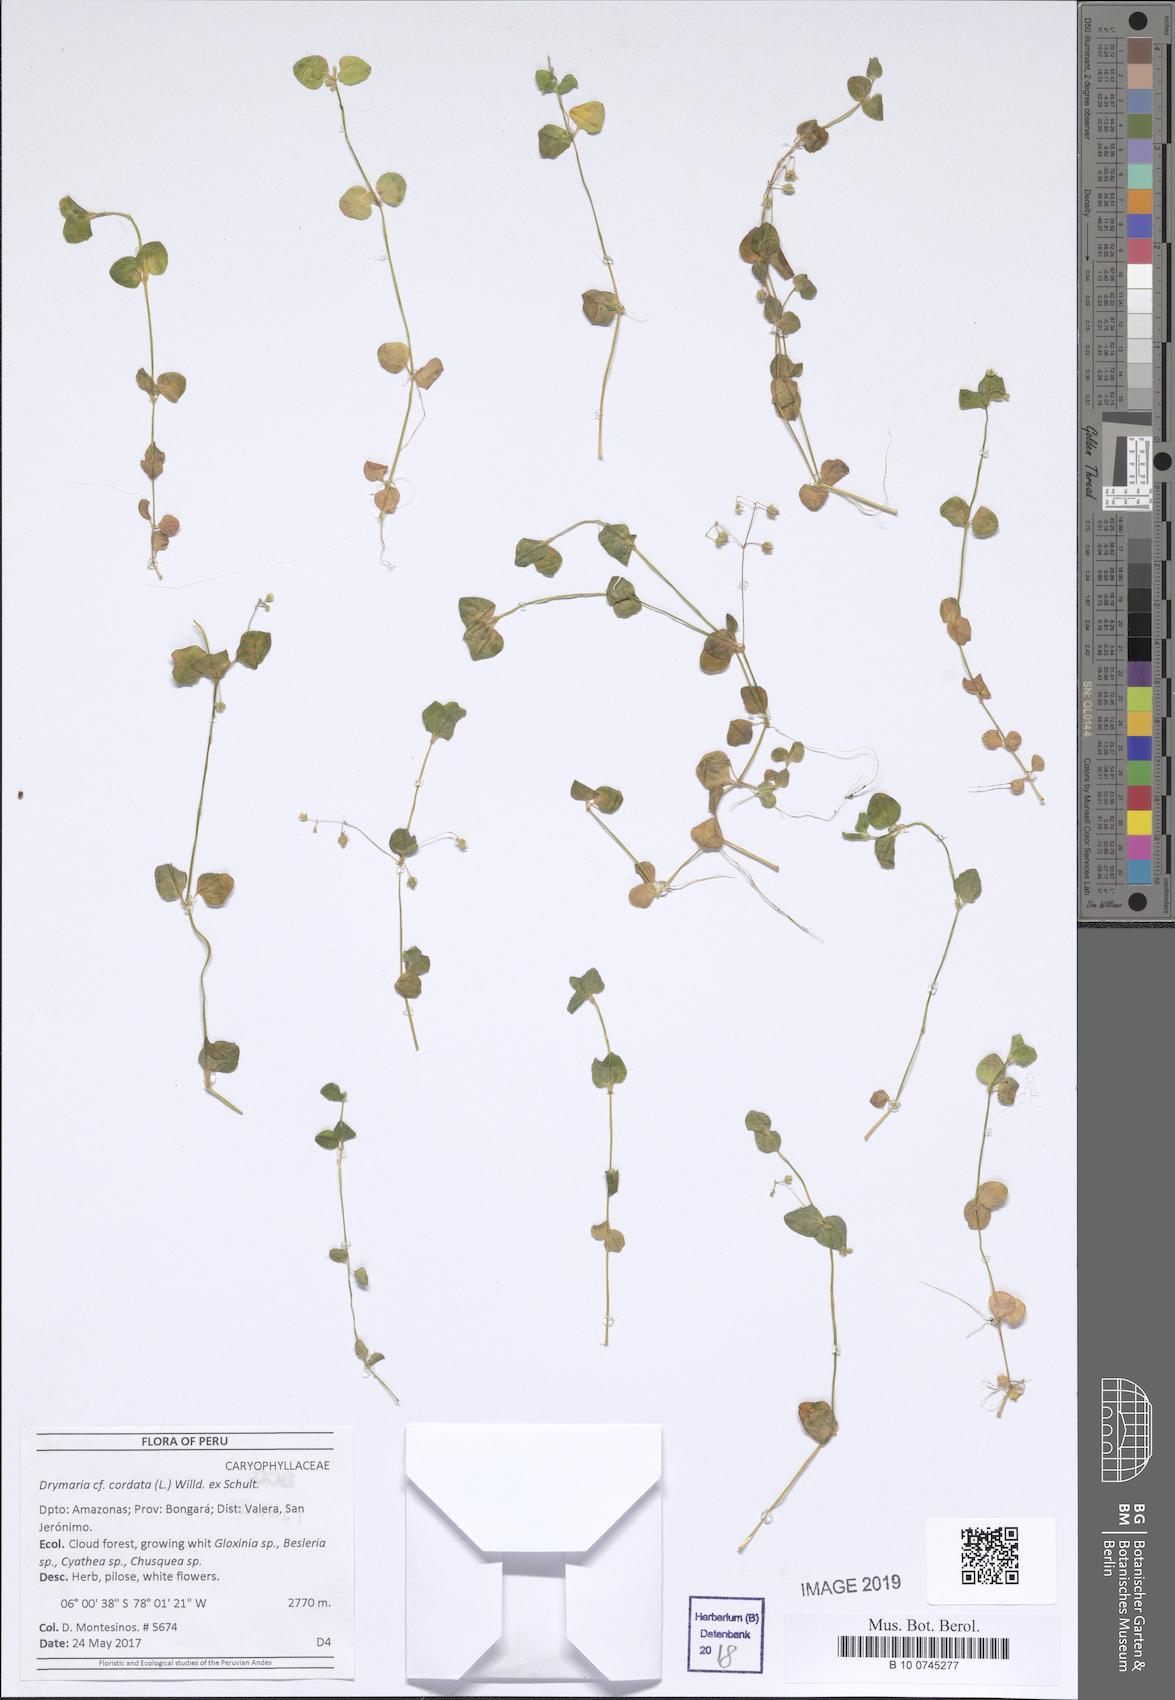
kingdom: Plantae
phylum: Tracheophyta
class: Magnoliopsida
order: Caryophyllales
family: Caryophyllaceae
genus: Drymaria
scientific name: Drymaria cordata
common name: Whitesnow
